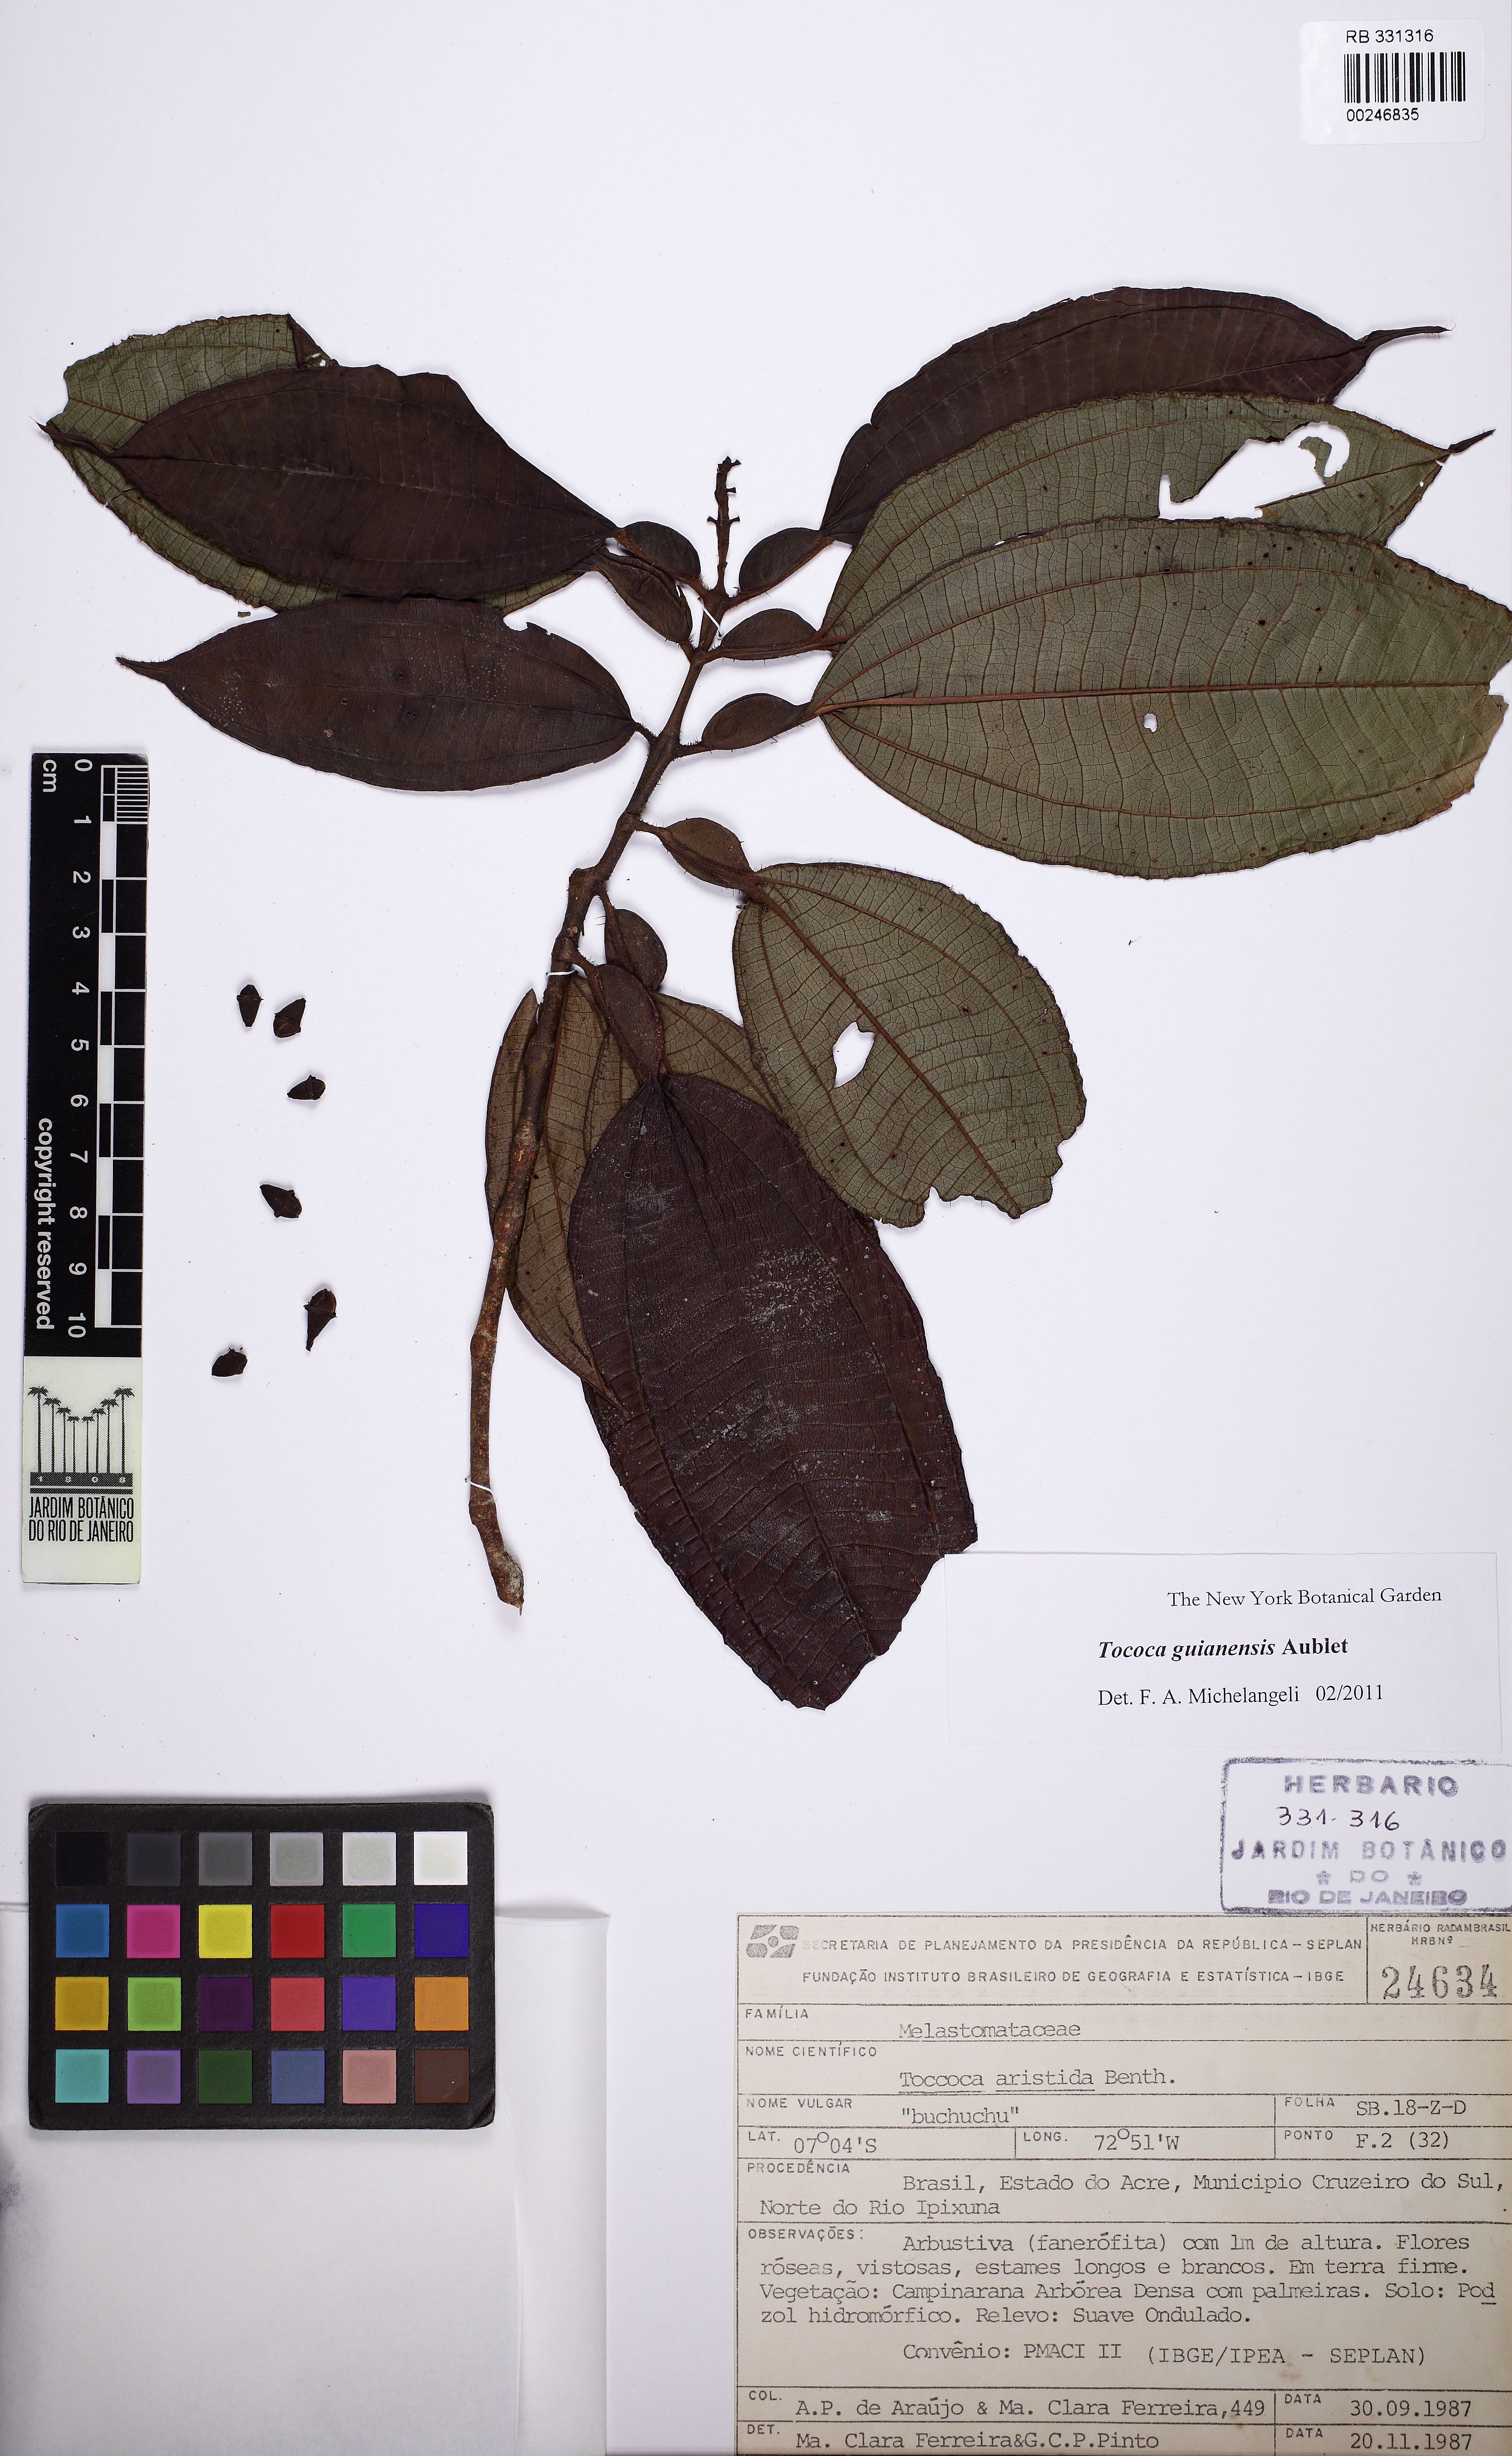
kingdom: Plantae
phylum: Tracheophyta
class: Magnoliopsida
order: Myrtales
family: Melastomataceae
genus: Miconia
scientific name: Miconia tococa
